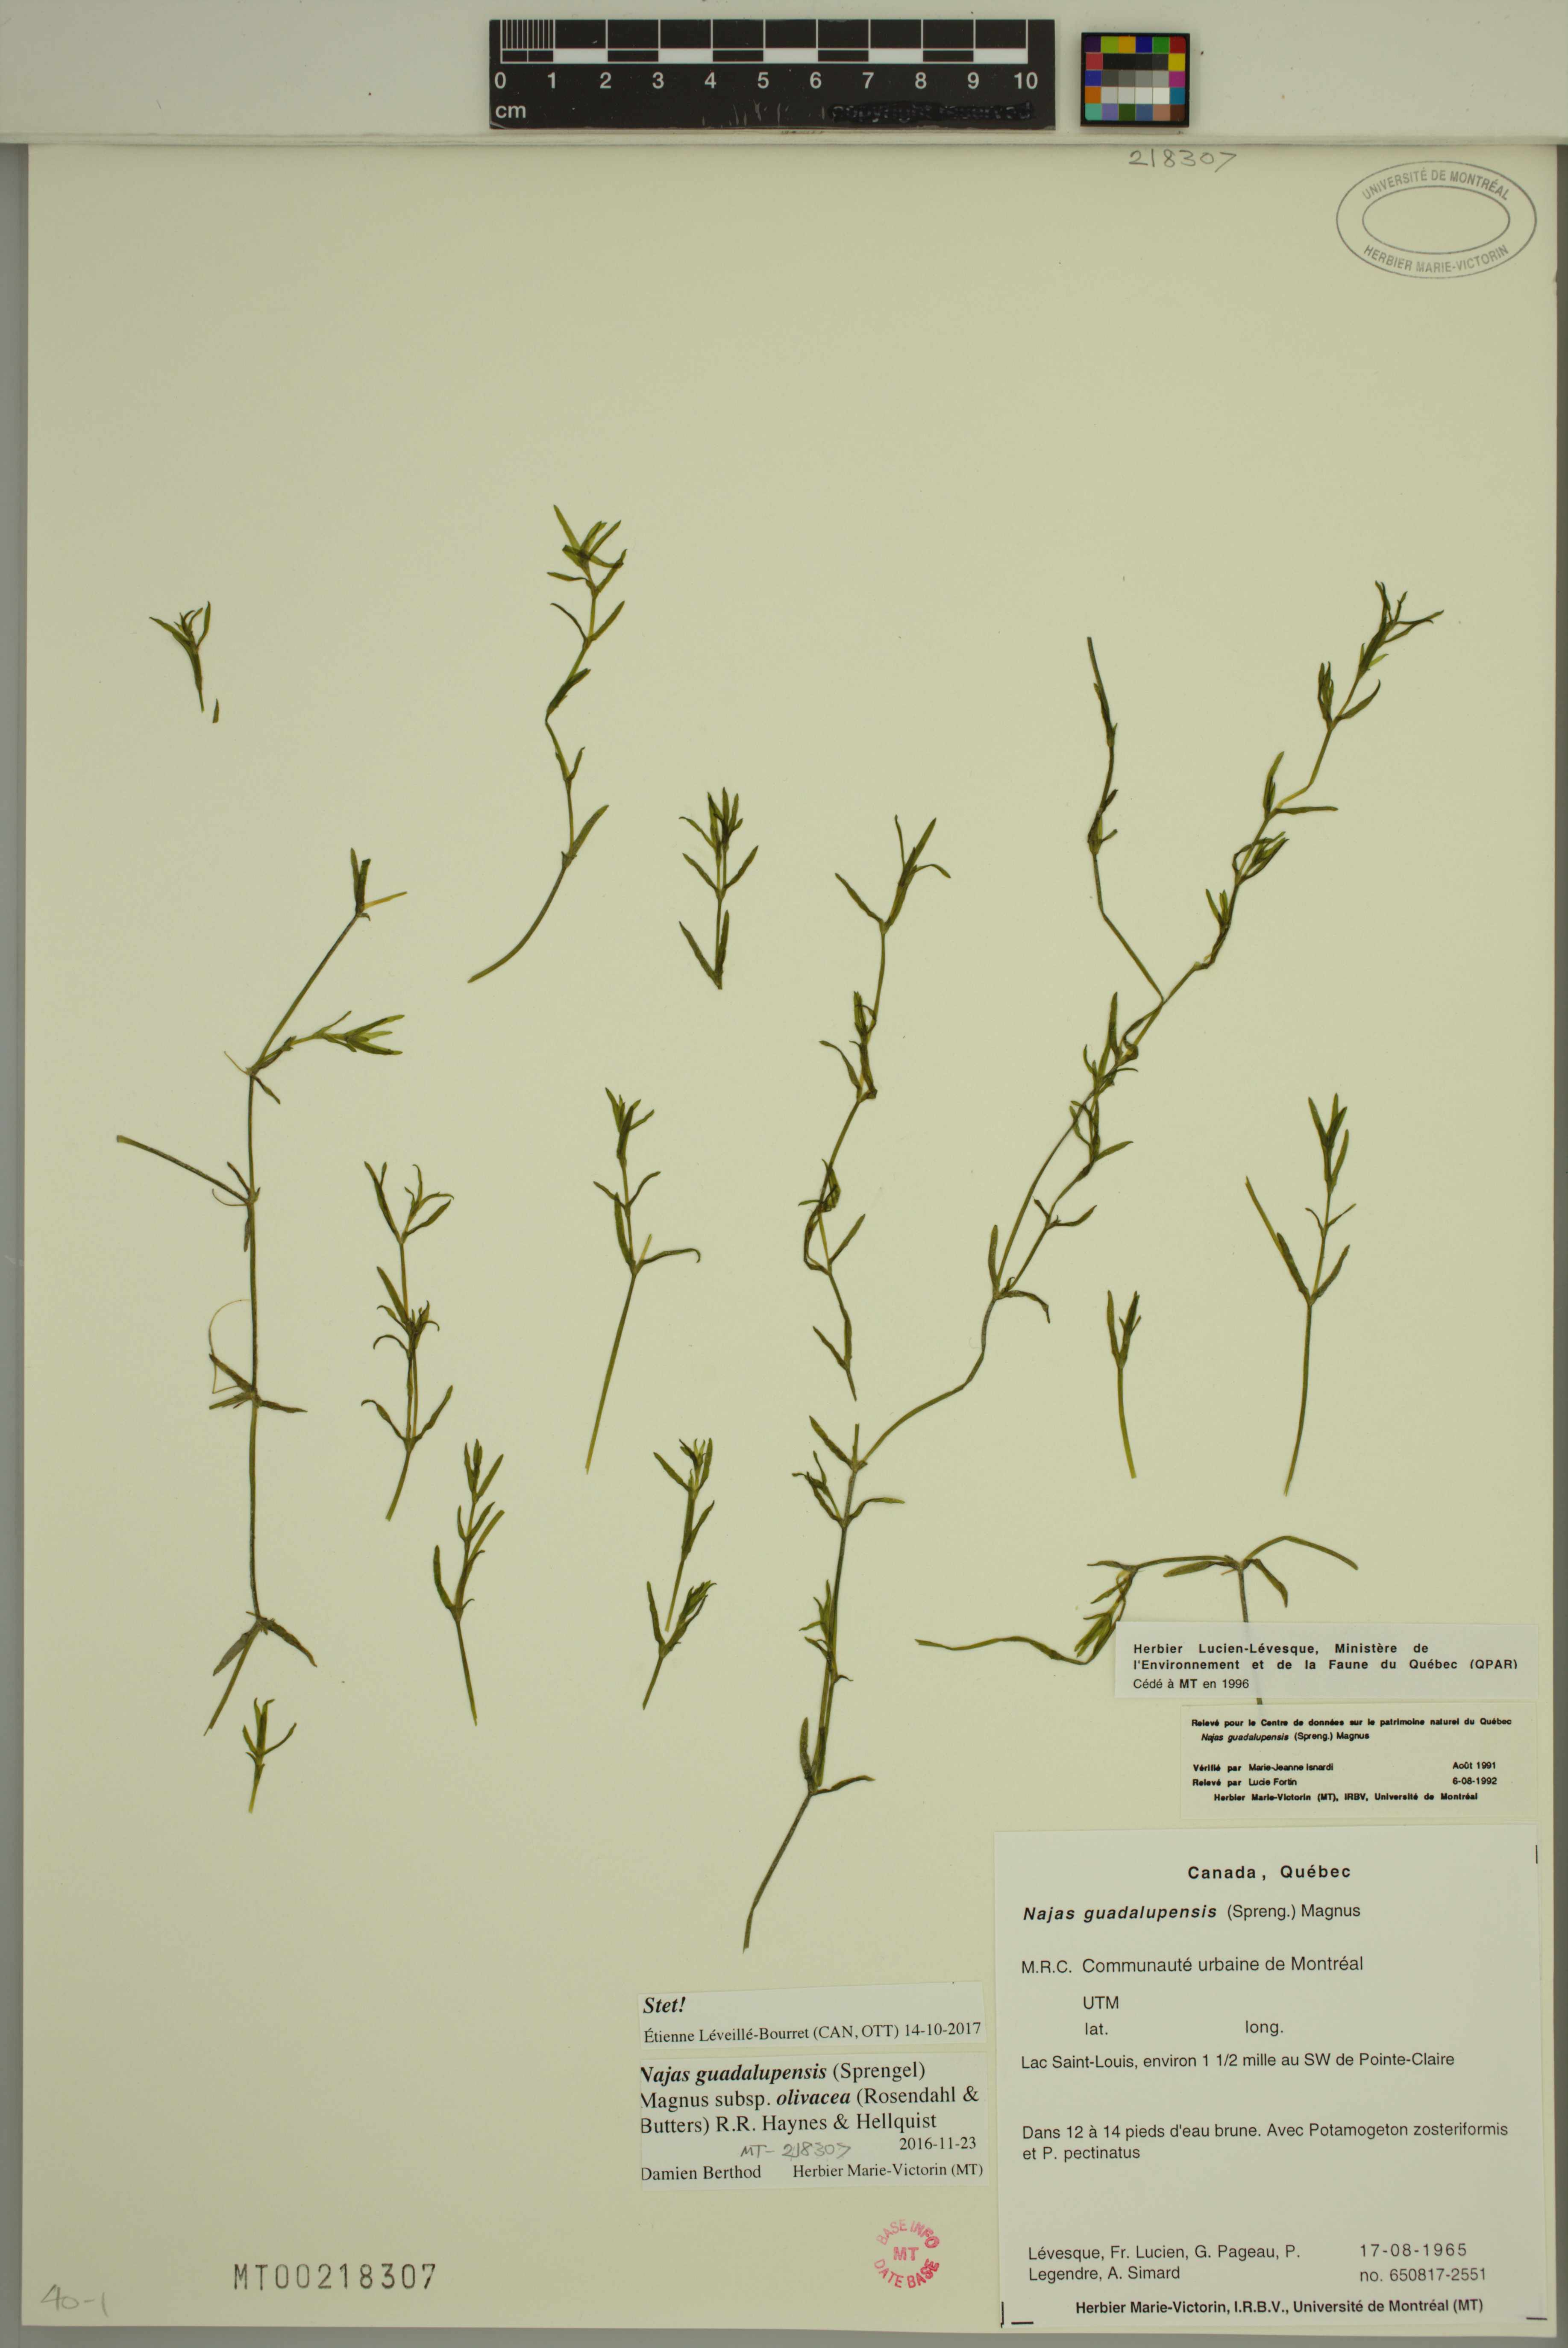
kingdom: Plantae
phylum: Tracheophyta
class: Liliopsida
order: Alismatales
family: Hydrocharitaceae
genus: Najas
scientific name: Najas guadalupensis
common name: Southern naiad
